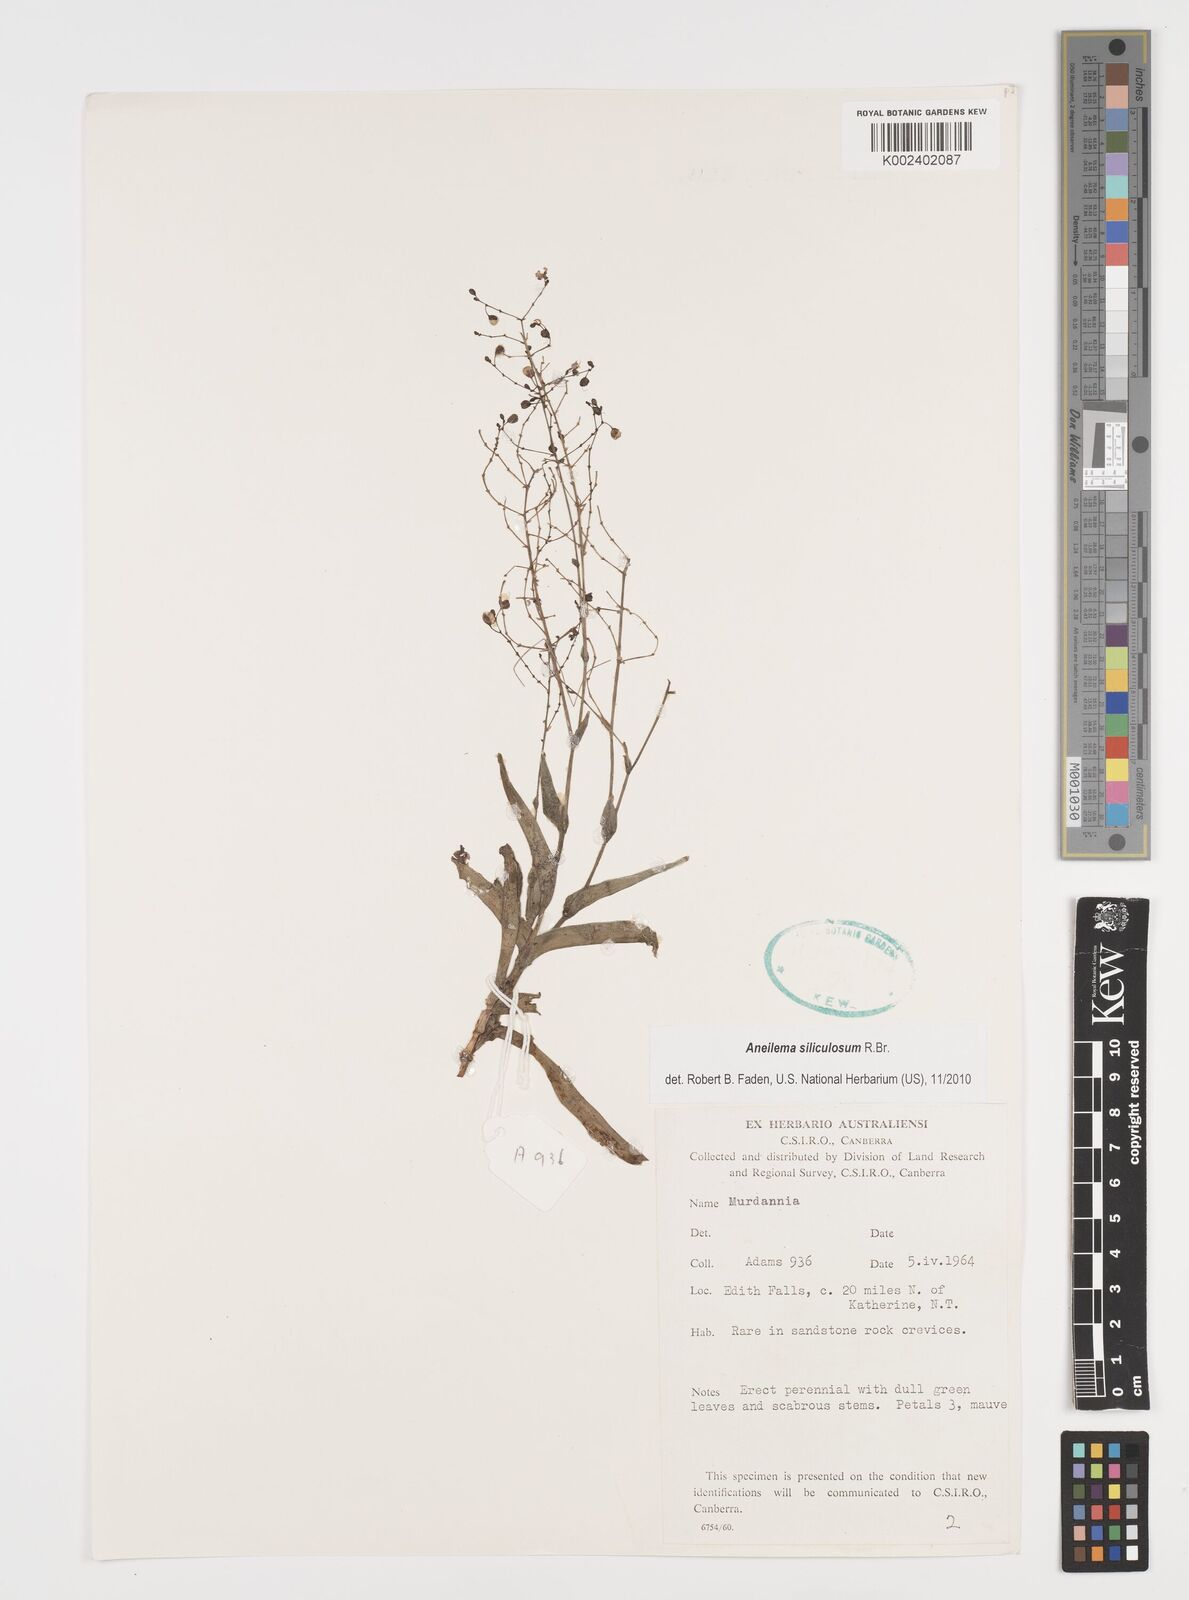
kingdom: Plantae
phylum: Tracheophyta
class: Liliopsida
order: Commelinales
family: Commelinaceae
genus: Aneilema
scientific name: Aneilema siliculosum
